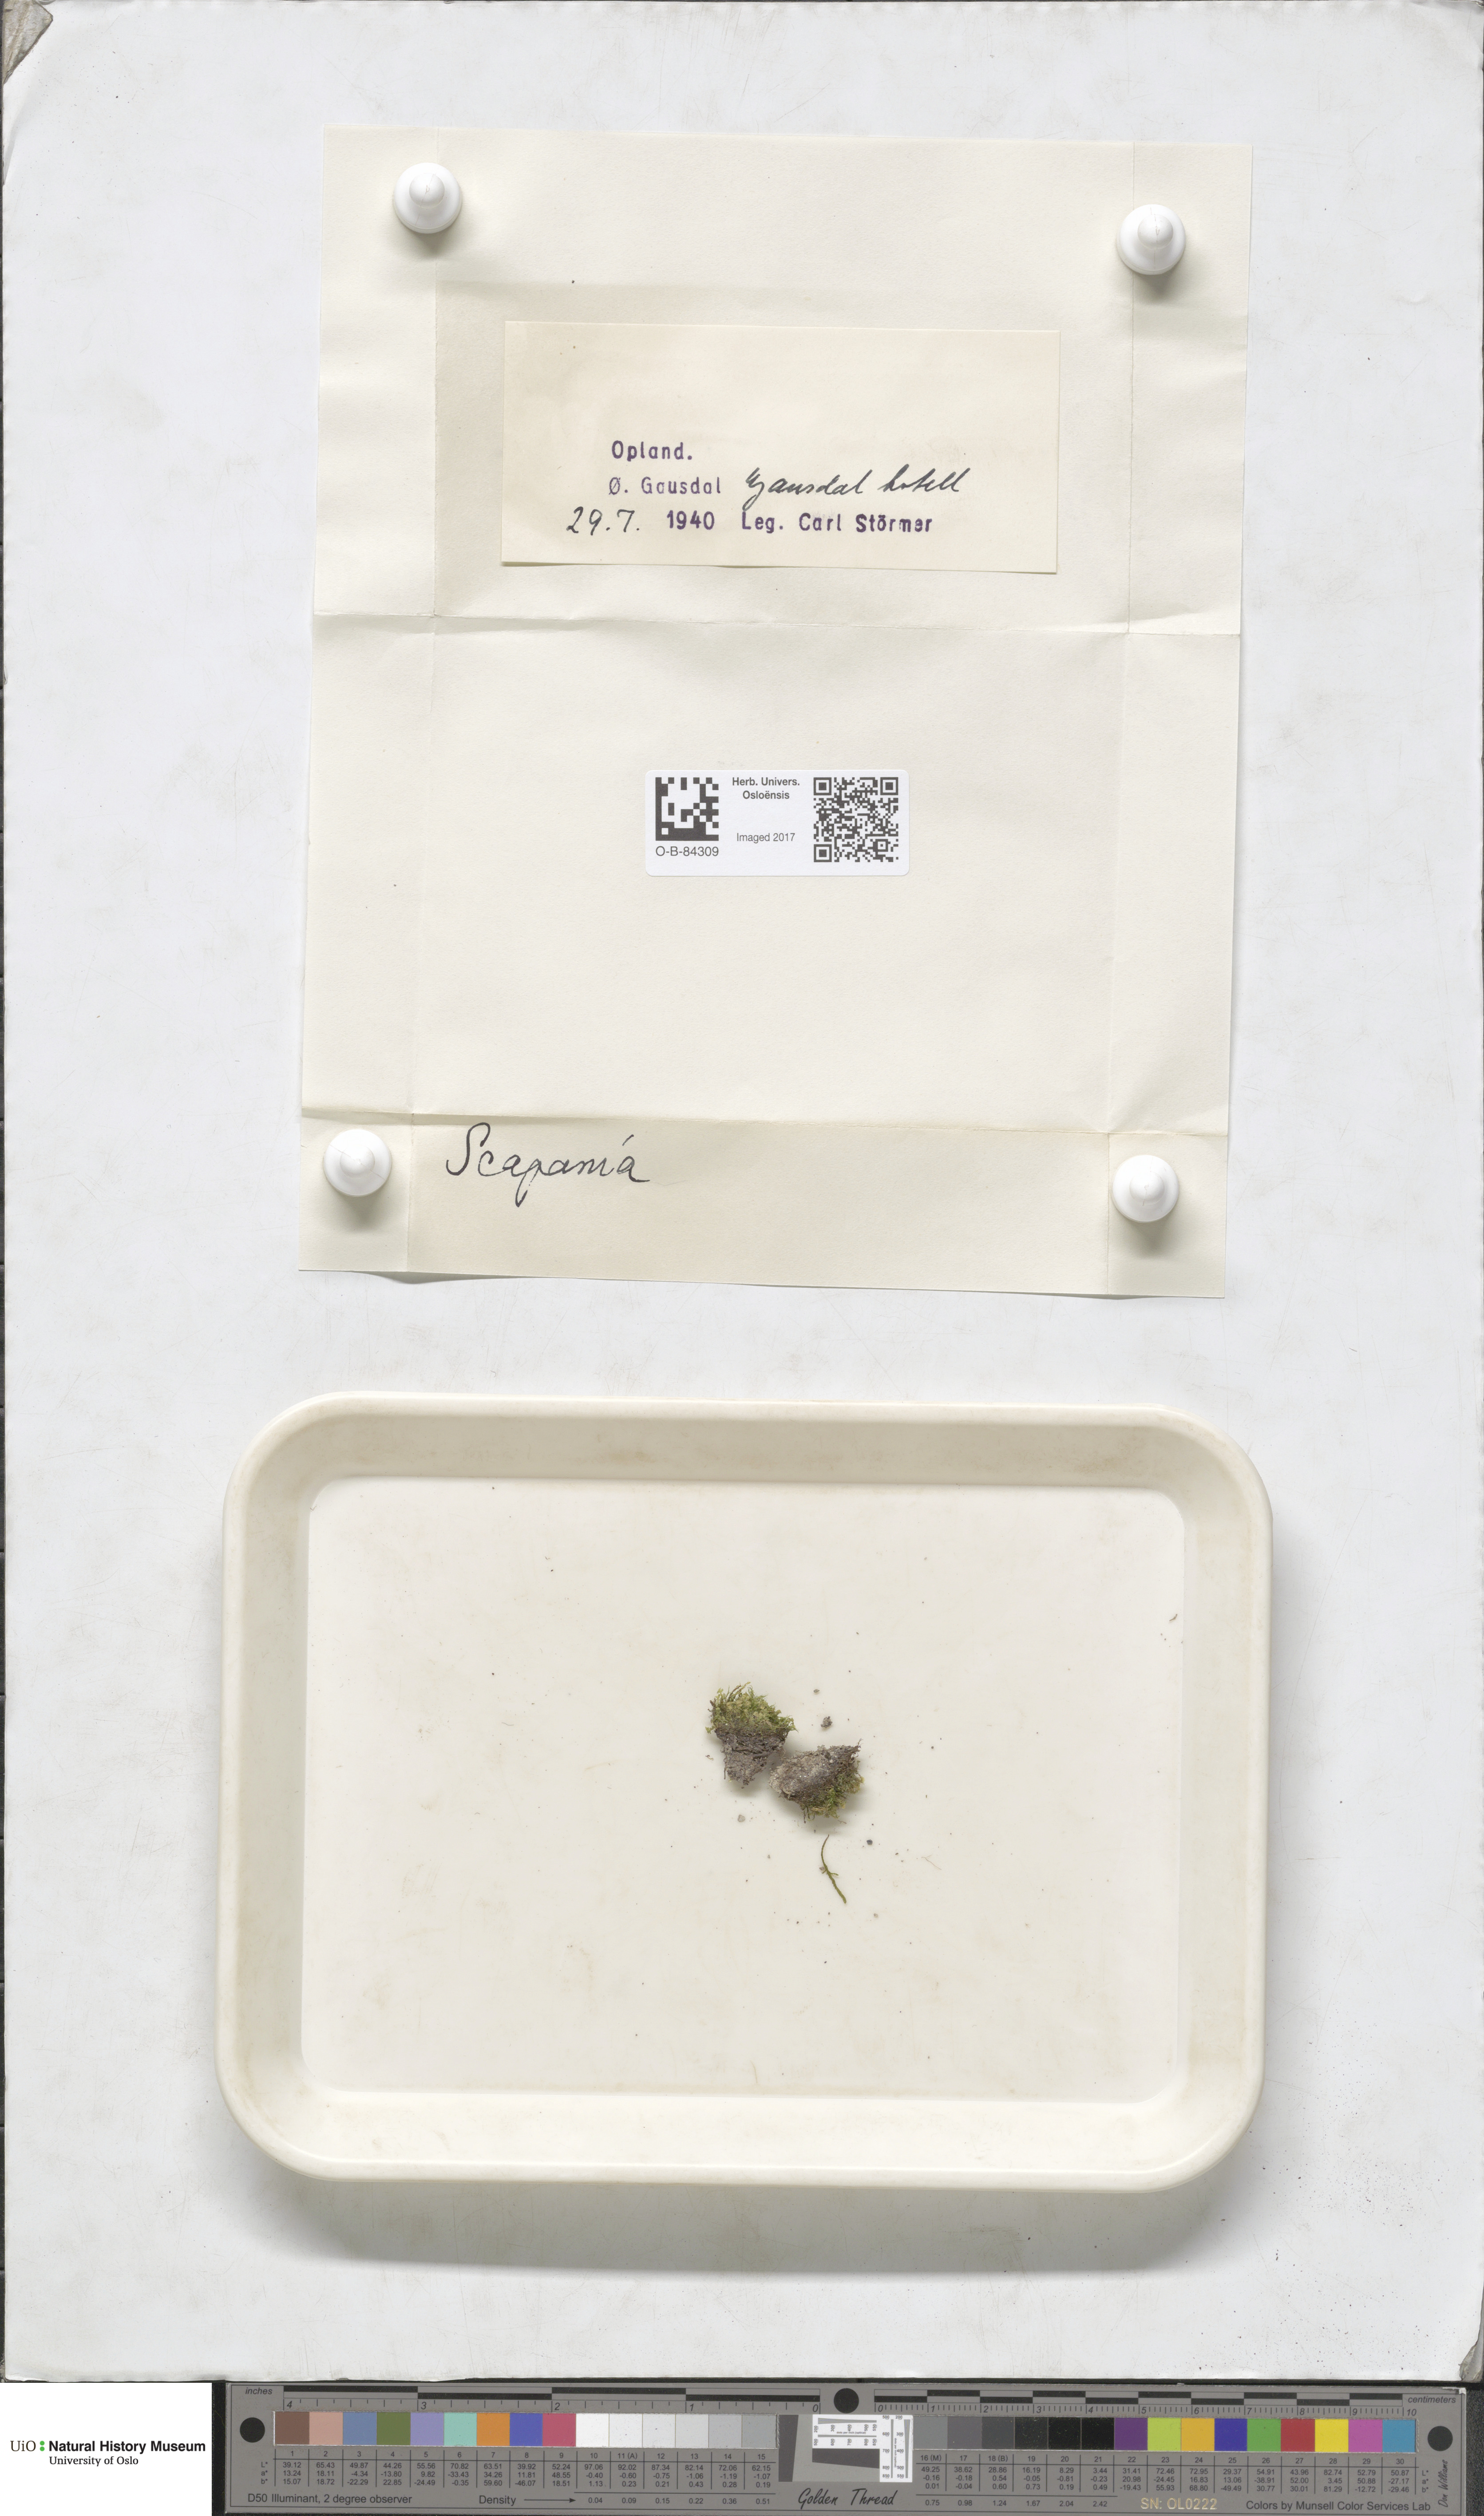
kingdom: Plantae
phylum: Marchantiophyta
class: Jungermanniopsida
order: Jungermanniales
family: Scapaniaceae
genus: Scapania
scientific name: Scapania
